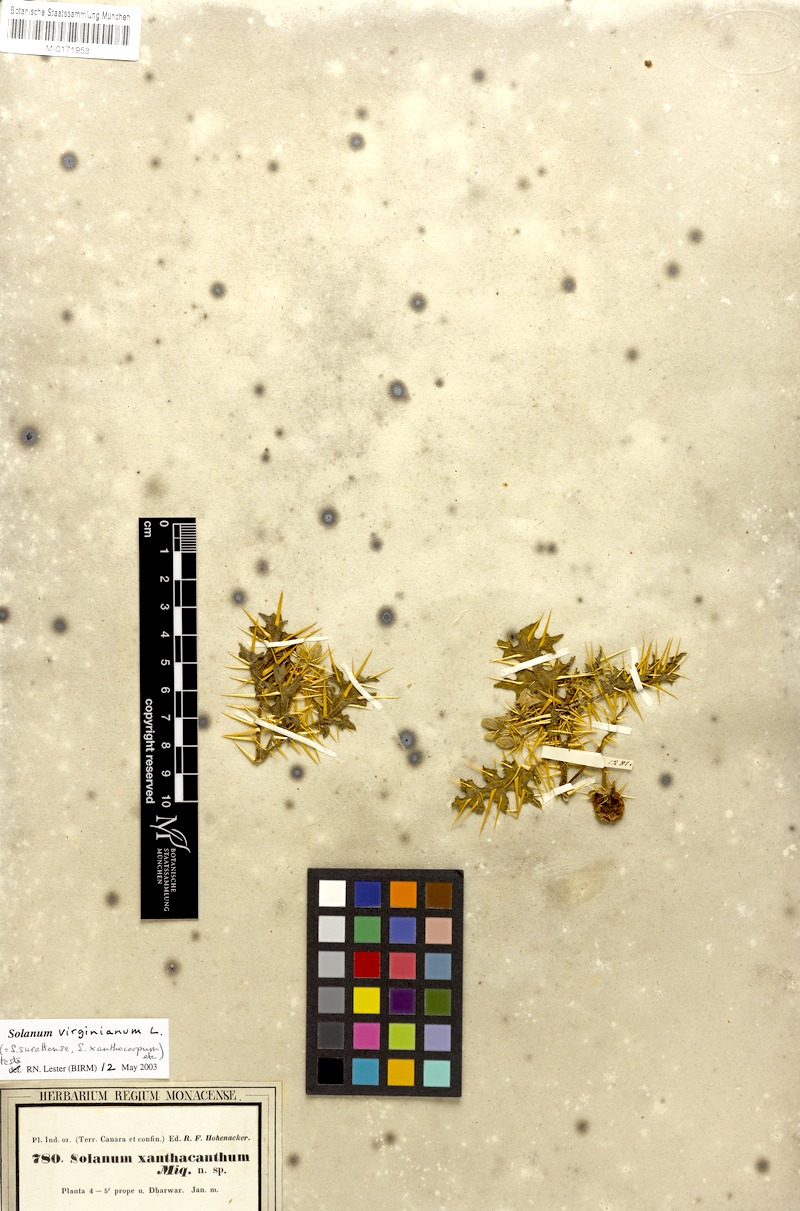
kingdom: Plantae
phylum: Tracheophyta
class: Magnoliopsida
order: Solanales
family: Solanaceae
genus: Solanum
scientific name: Solanum virginianum
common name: Surattense nightshade
